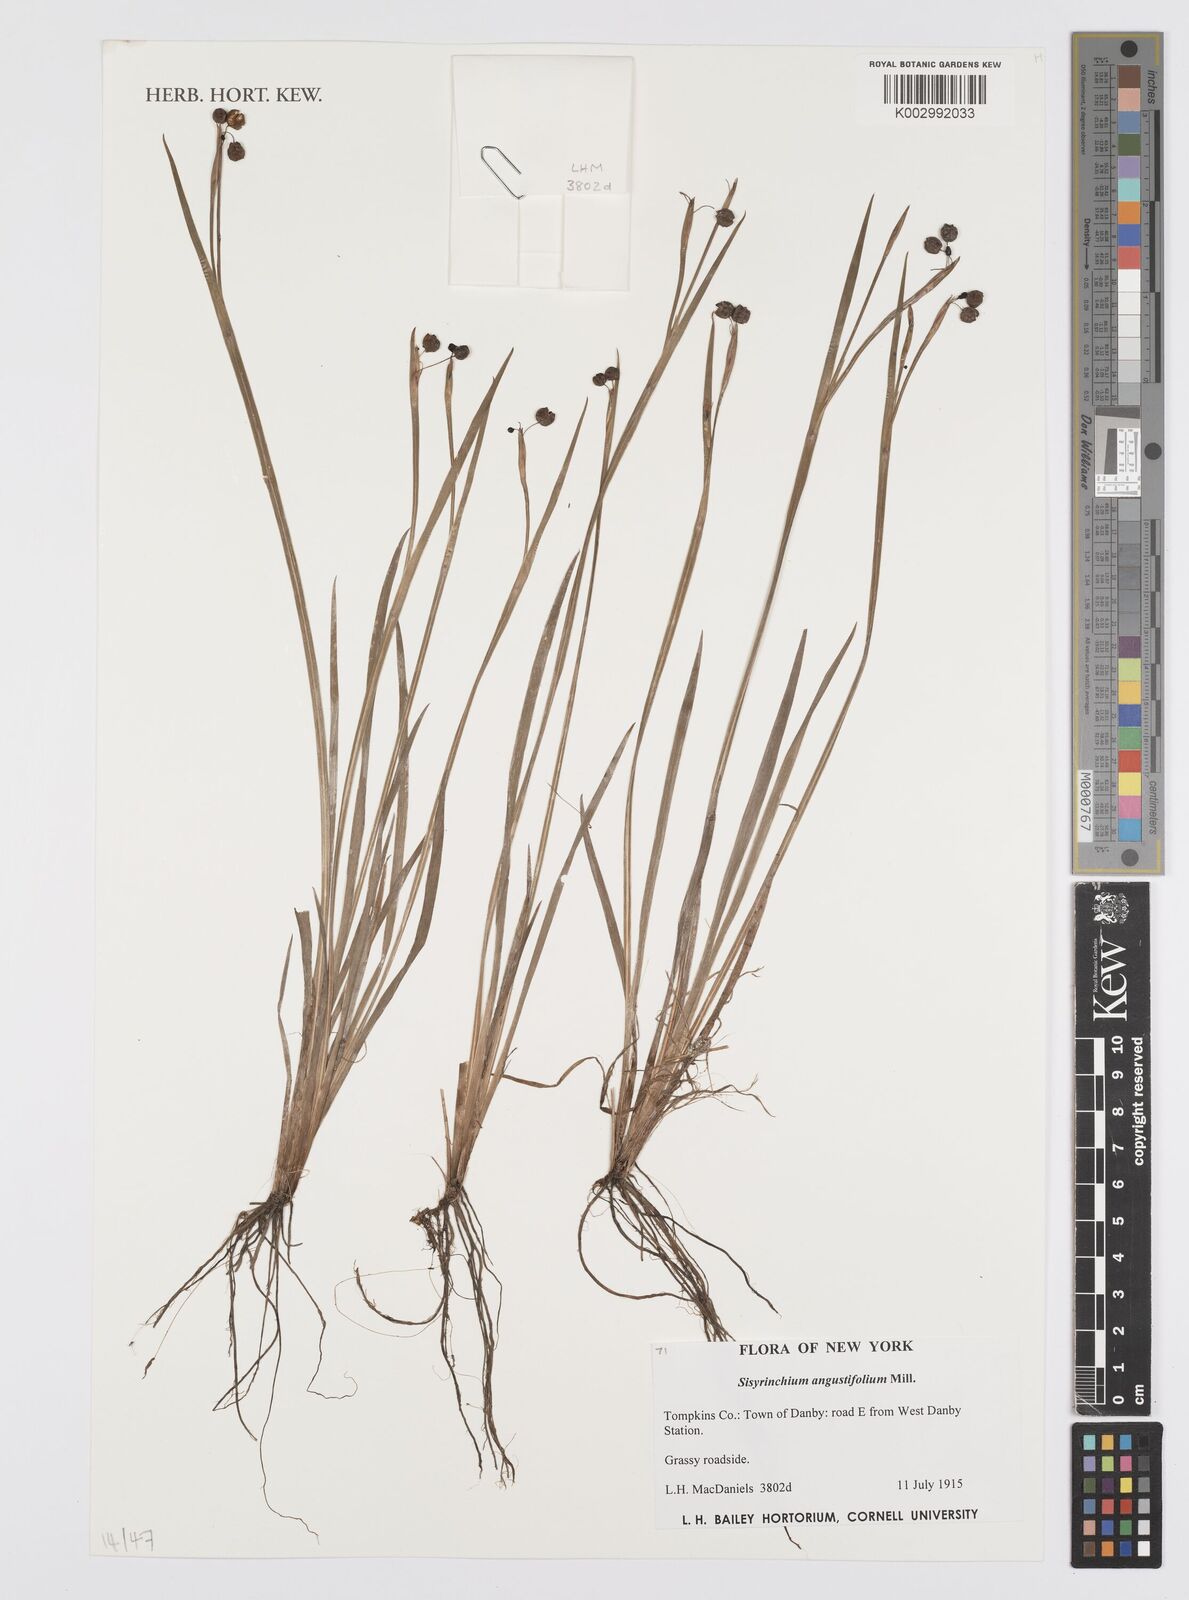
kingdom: Plantae
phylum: Tracheophyta
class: Liliopsida
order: Asparagales
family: Iridaceae
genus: Sisyrinchium
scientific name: Sisyrinchium angustifolium
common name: Narrow-leaf blue-eyed-grass
